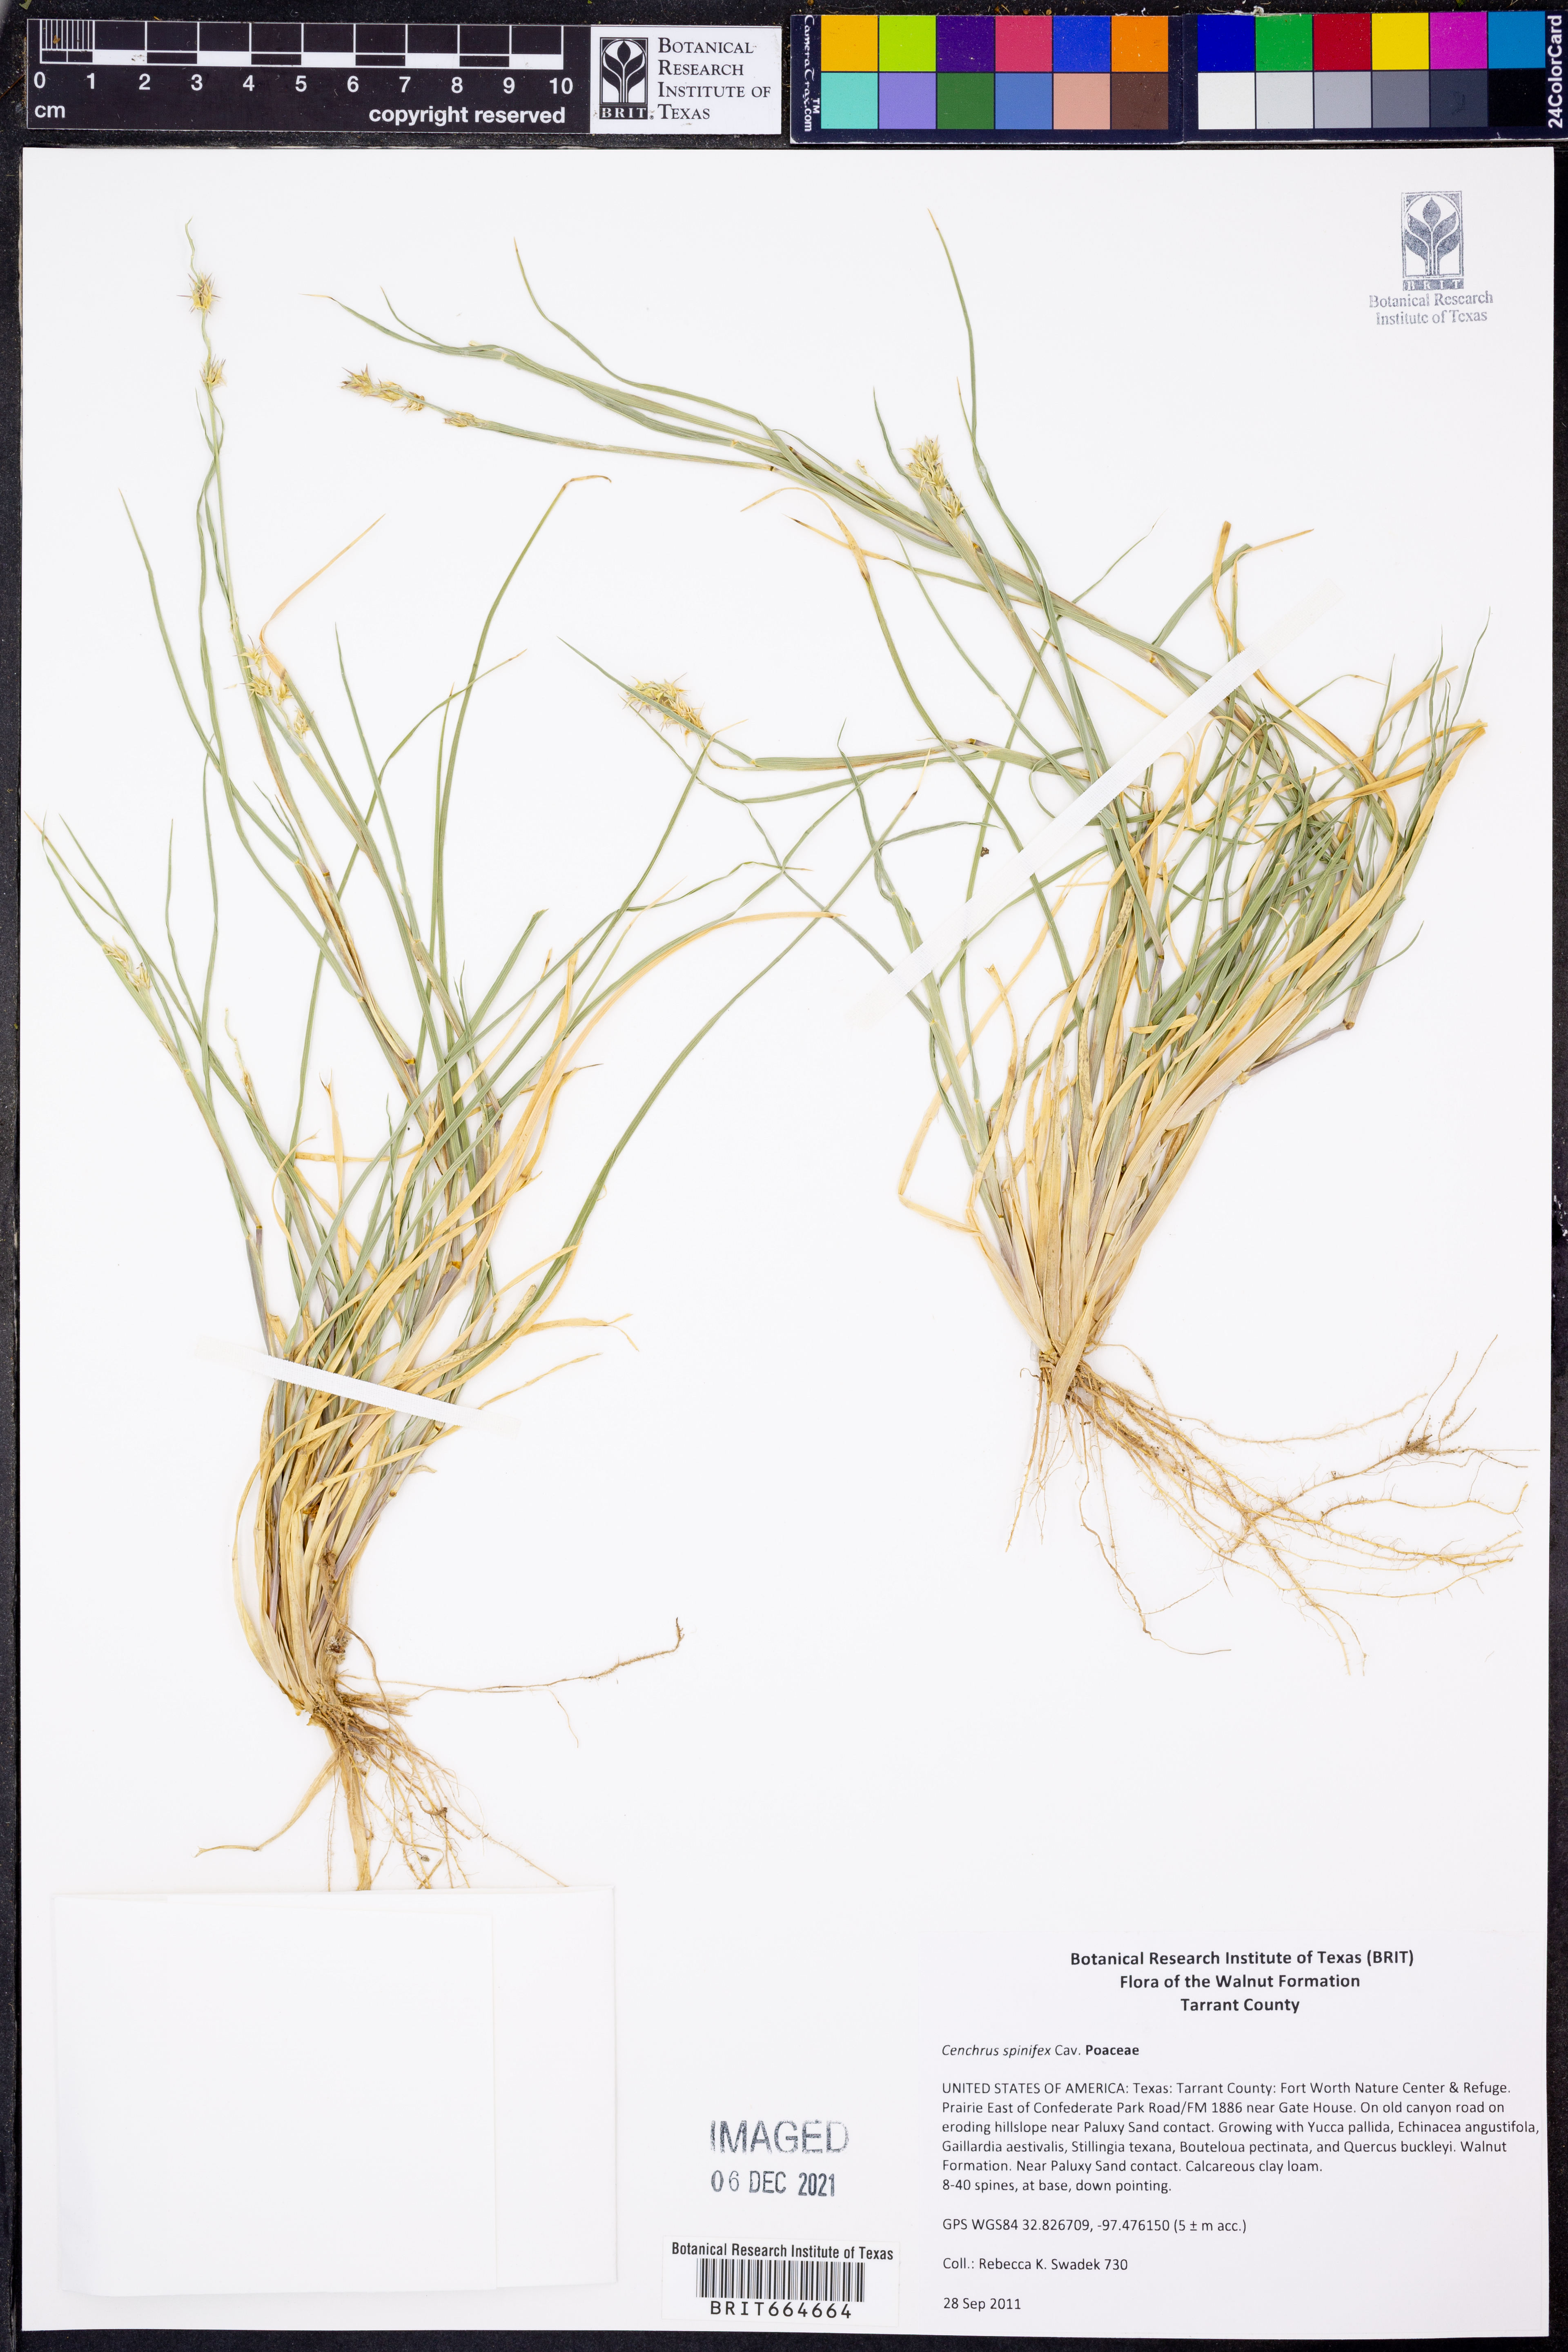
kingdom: Plantae
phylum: Tracheophyta
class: Liliopsida
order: Poales
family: Poaceae
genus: Cenchrus
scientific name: Cenchrus spinifex
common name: Coast sandbur
